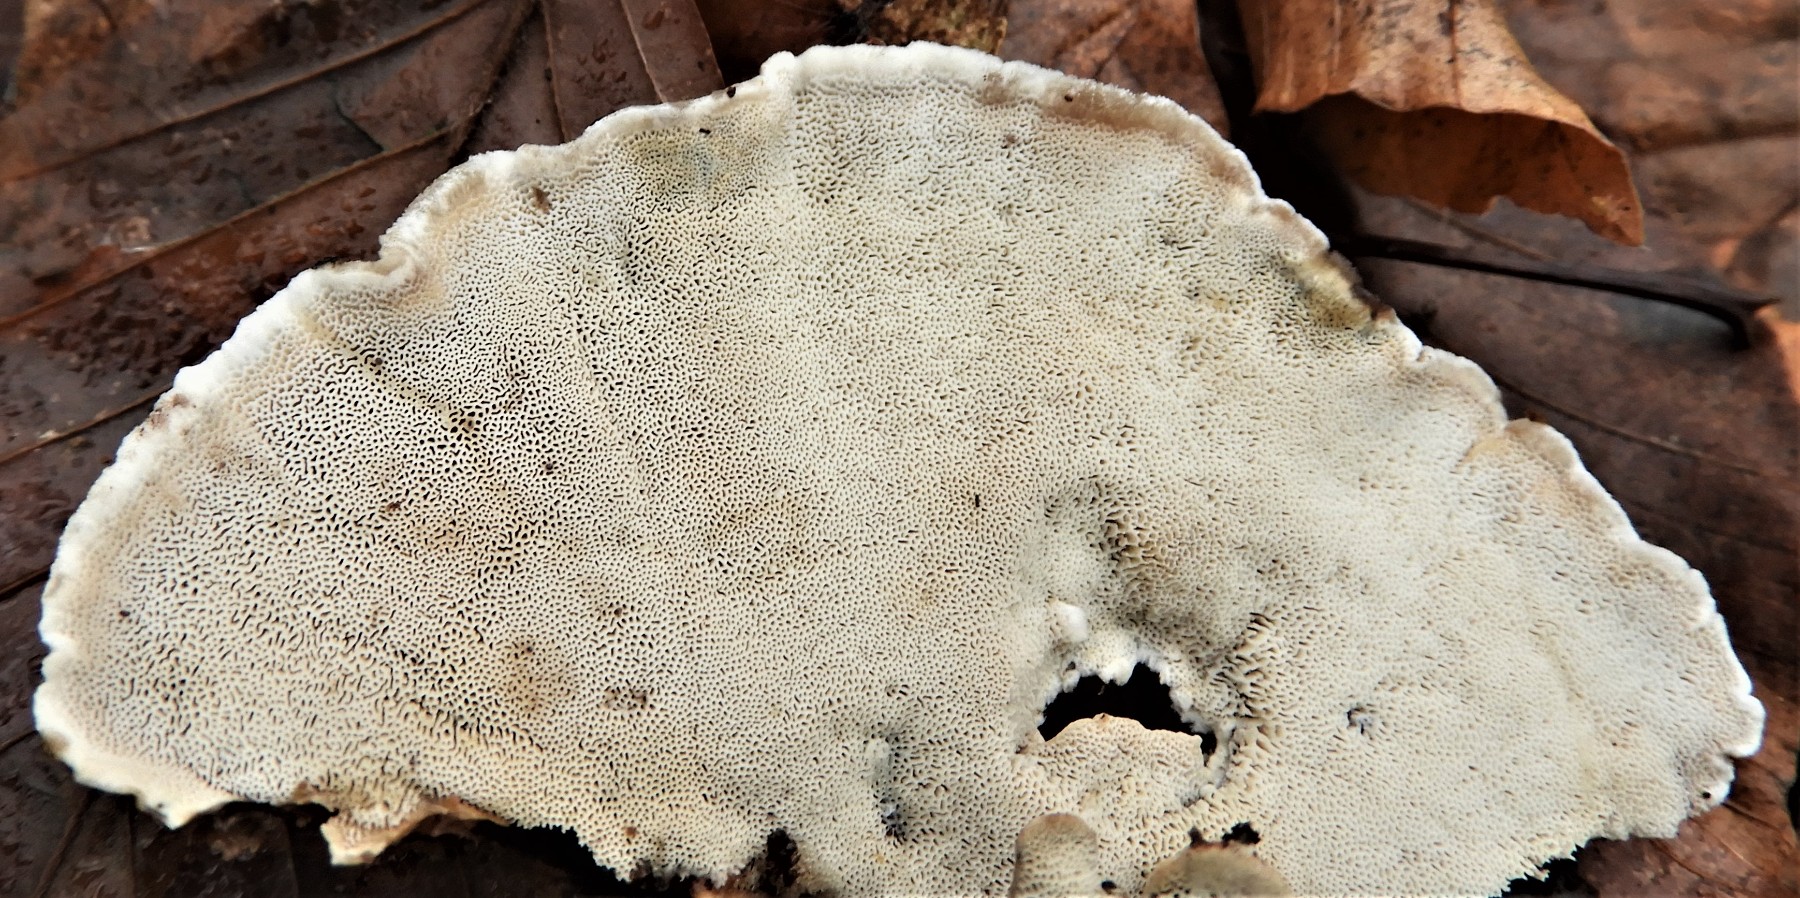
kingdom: Fungi
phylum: Basidiomycota
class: Agaricomycetes
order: Polyporales
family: Phanerochaetaceae
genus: Bjerkandera
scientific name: Bjerkandera fumosa
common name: grågul sodporesvamp
